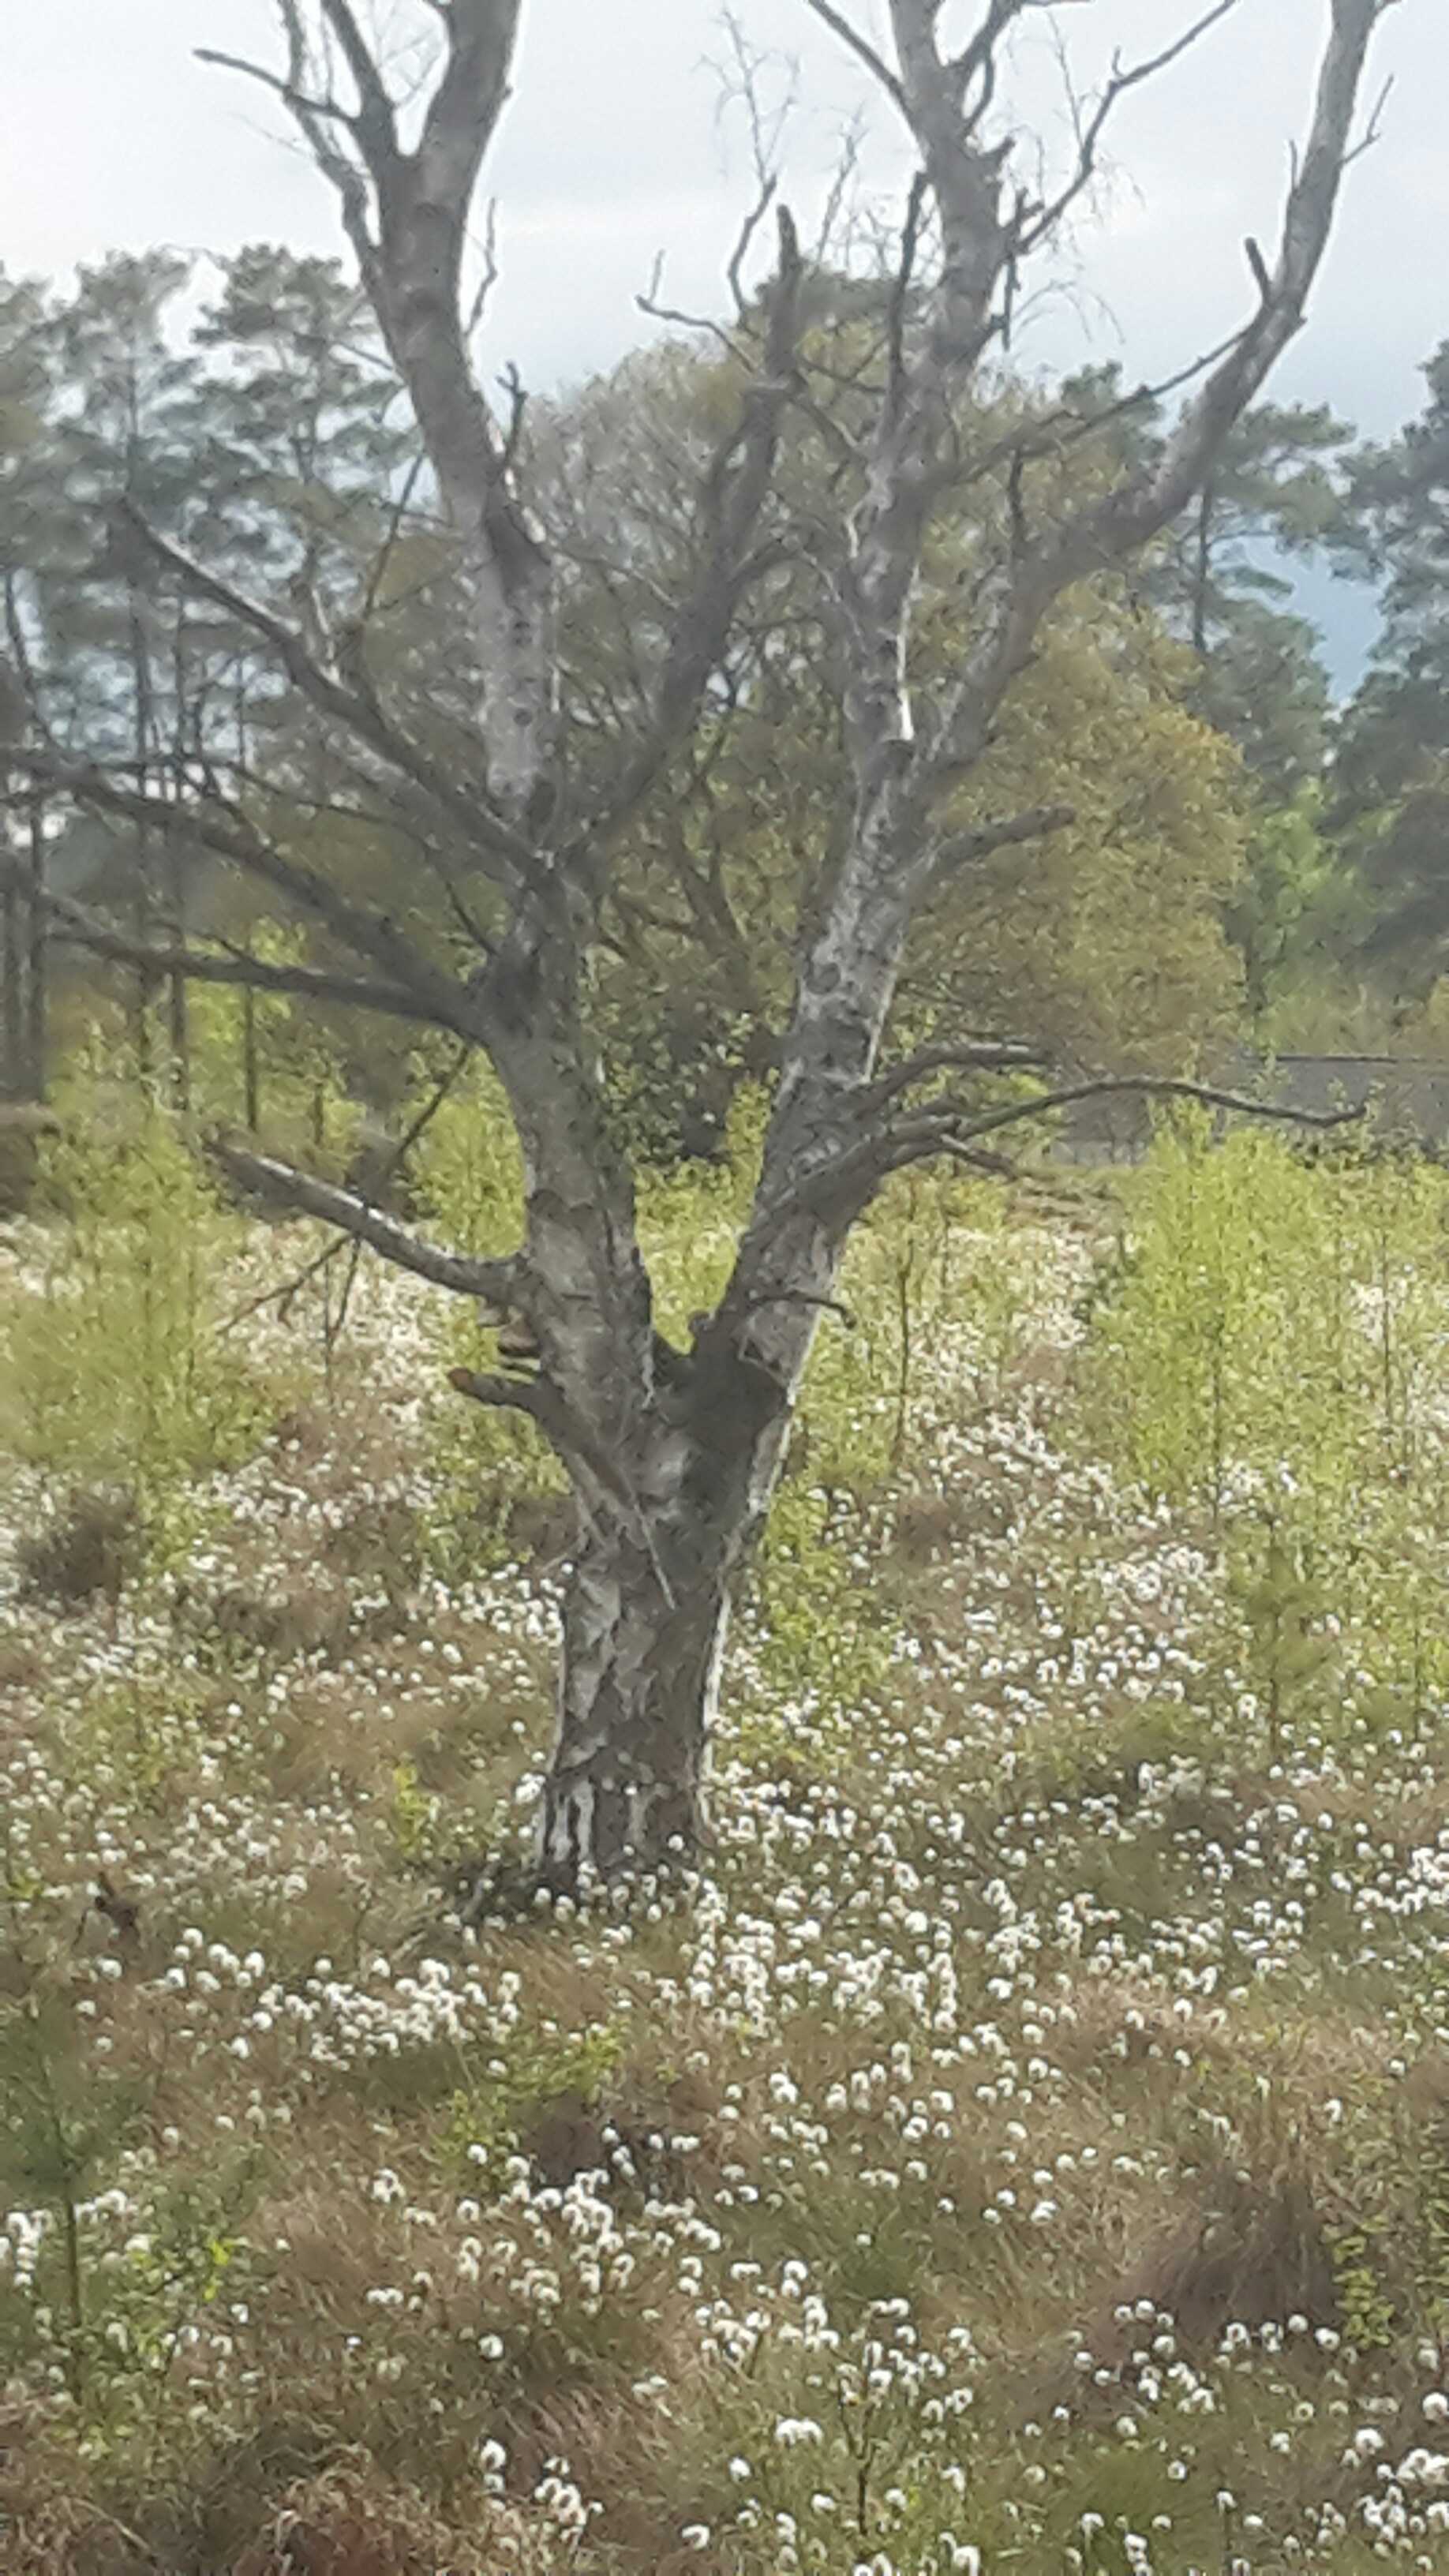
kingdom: Fungi
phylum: Ascomycota
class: Lecanoromycetes
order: Lecanorales
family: Parmeliaceae
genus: Hypogymnia
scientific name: Hypogymnia physodes
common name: almindelig kvistlav
